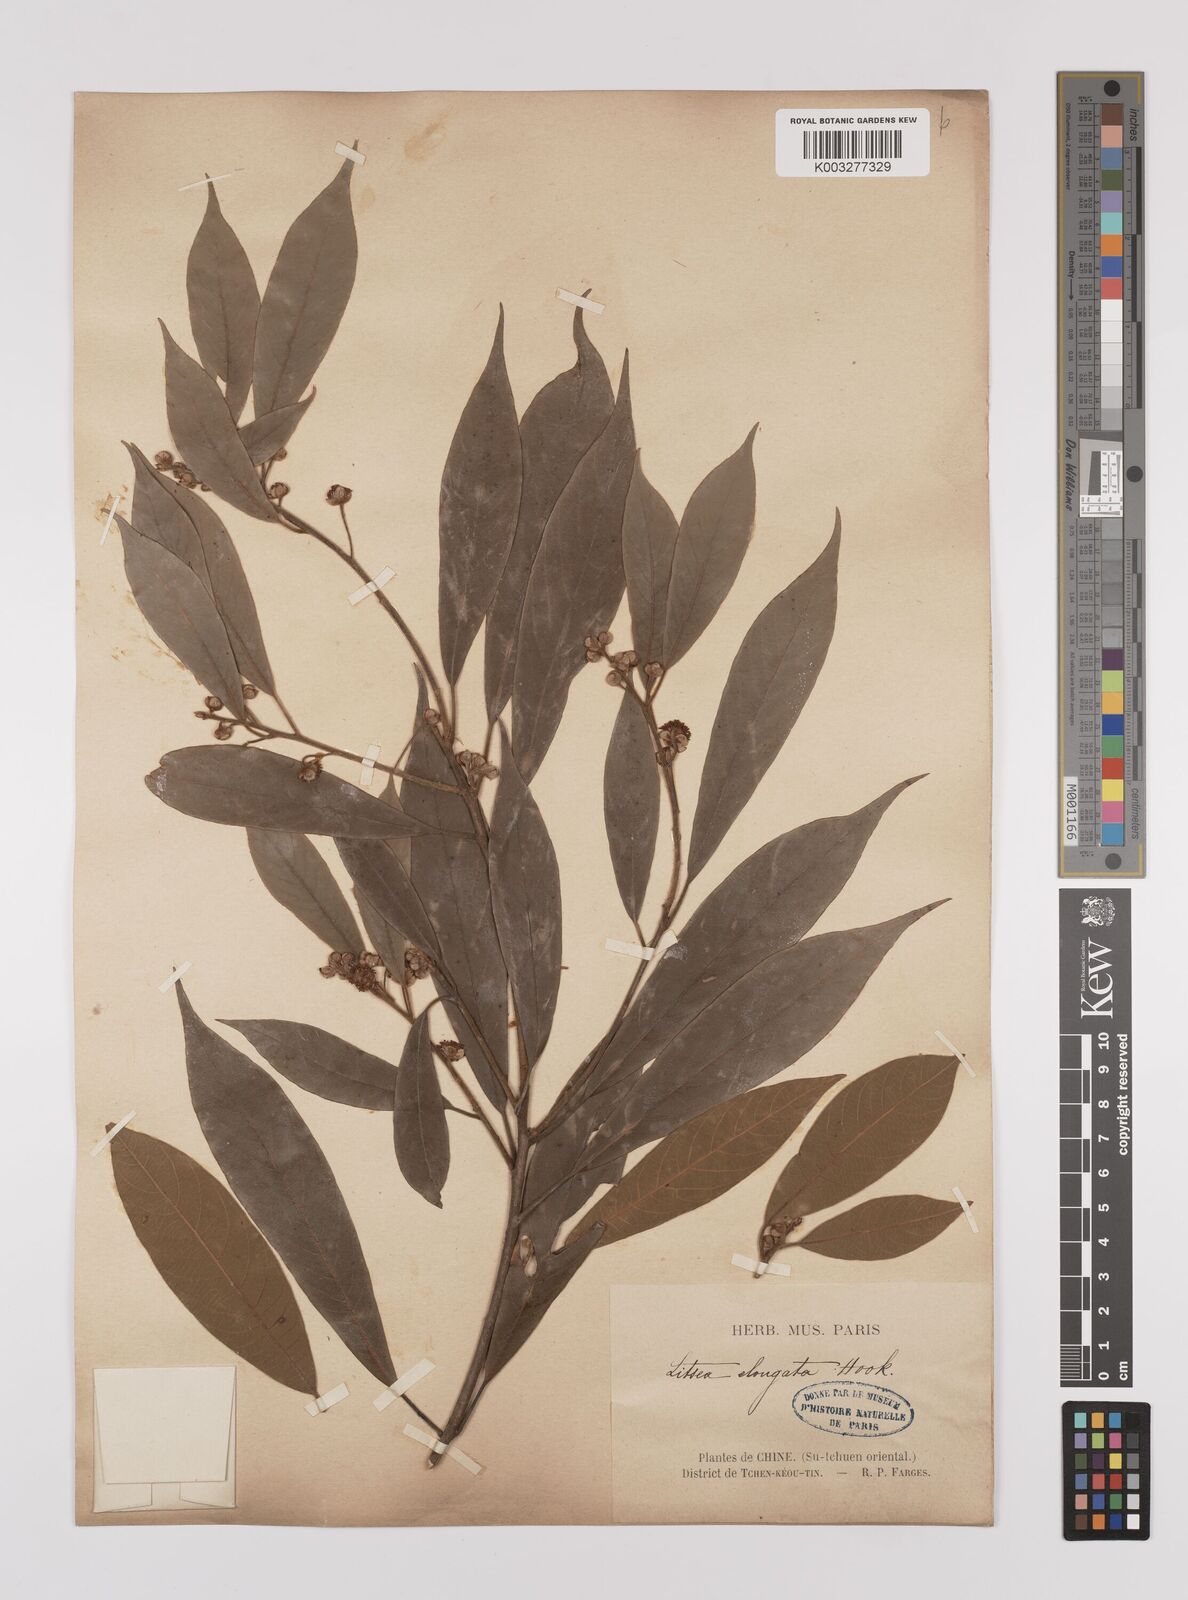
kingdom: Plantae
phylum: Tracheophyta
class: Magnoliopsida
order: Laurales
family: Lauraceae
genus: Litsea
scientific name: Litsea elongata
